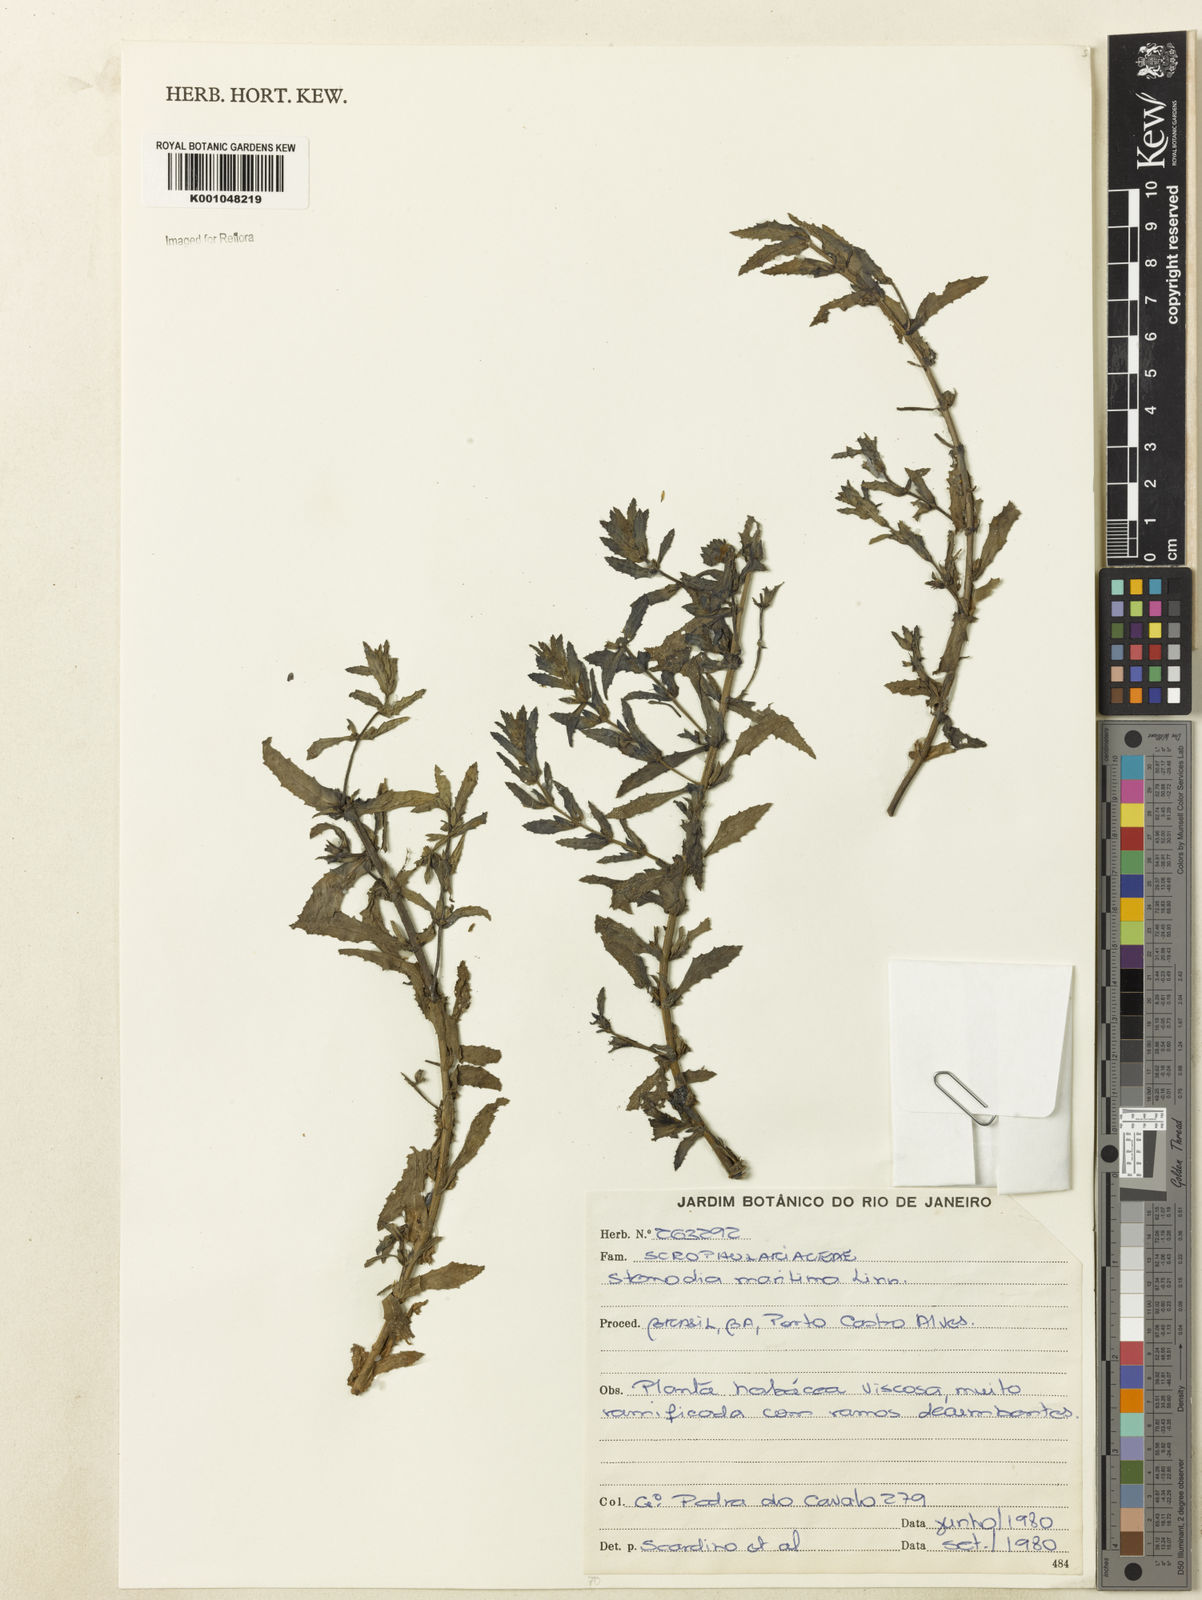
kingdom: Plantae
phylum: Tracheophyta
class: Magnoliopsida
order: Lamiales
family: Plantaginaceae
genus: Stemodia
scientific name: Stemodia maritima
